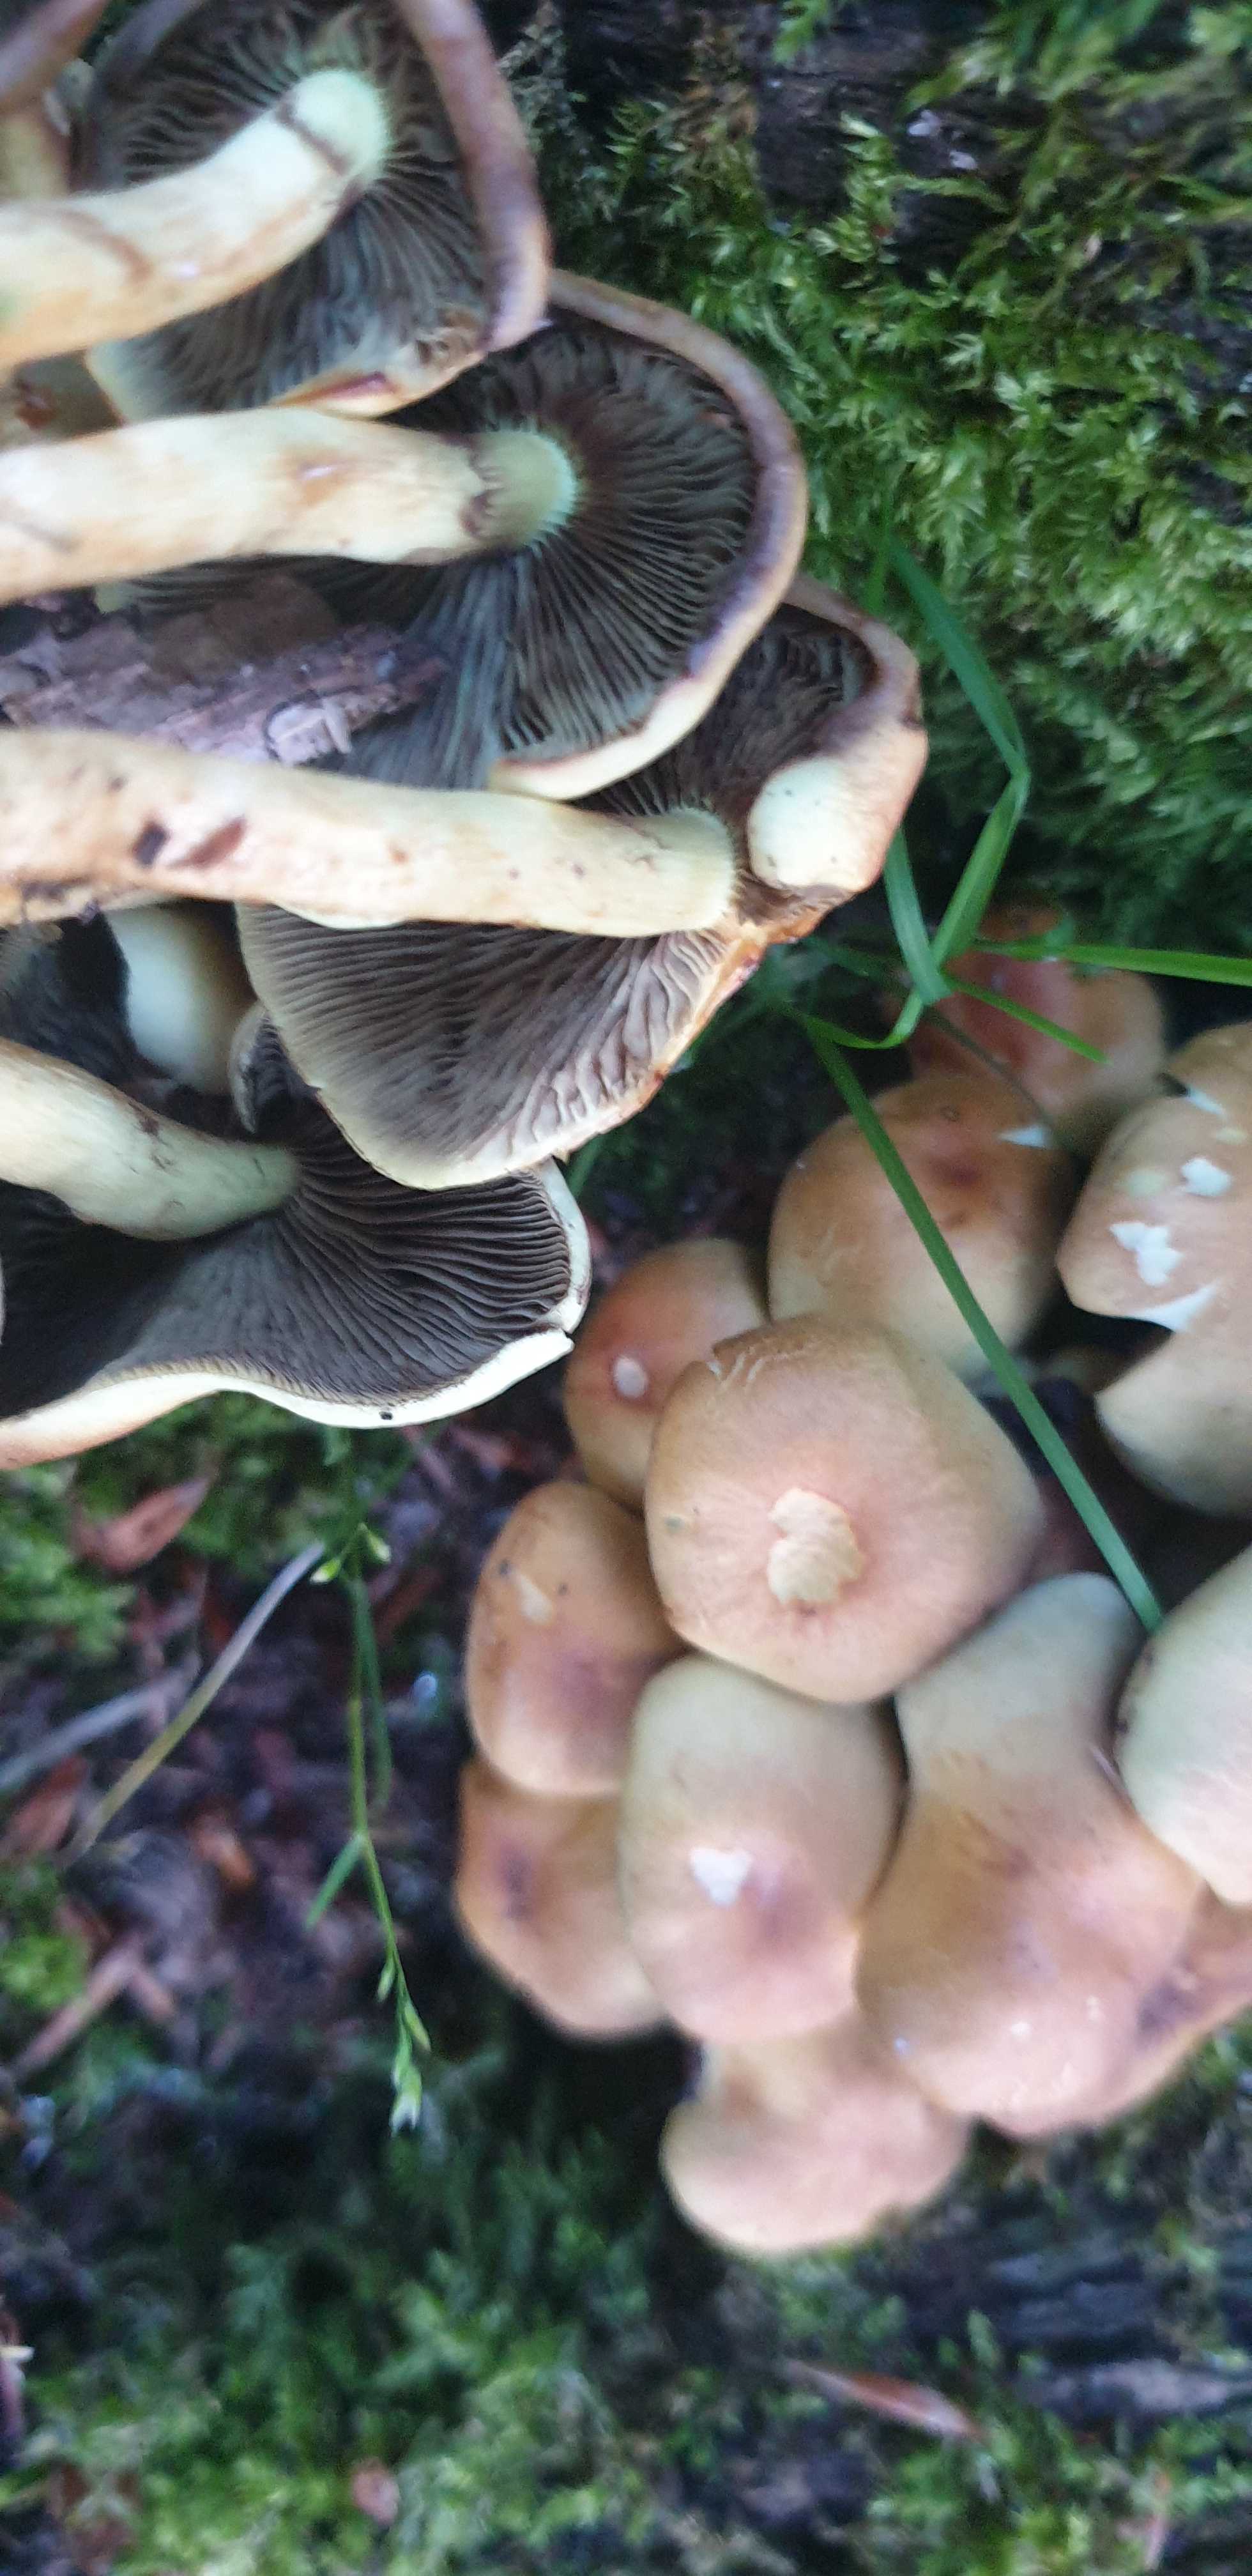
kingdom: Fungi
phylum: Basidiomycota
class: Agaricomycetes
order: Agaricales
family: Strophariaceae
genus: Hypholoma
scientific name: Hypholoma fasciculare
